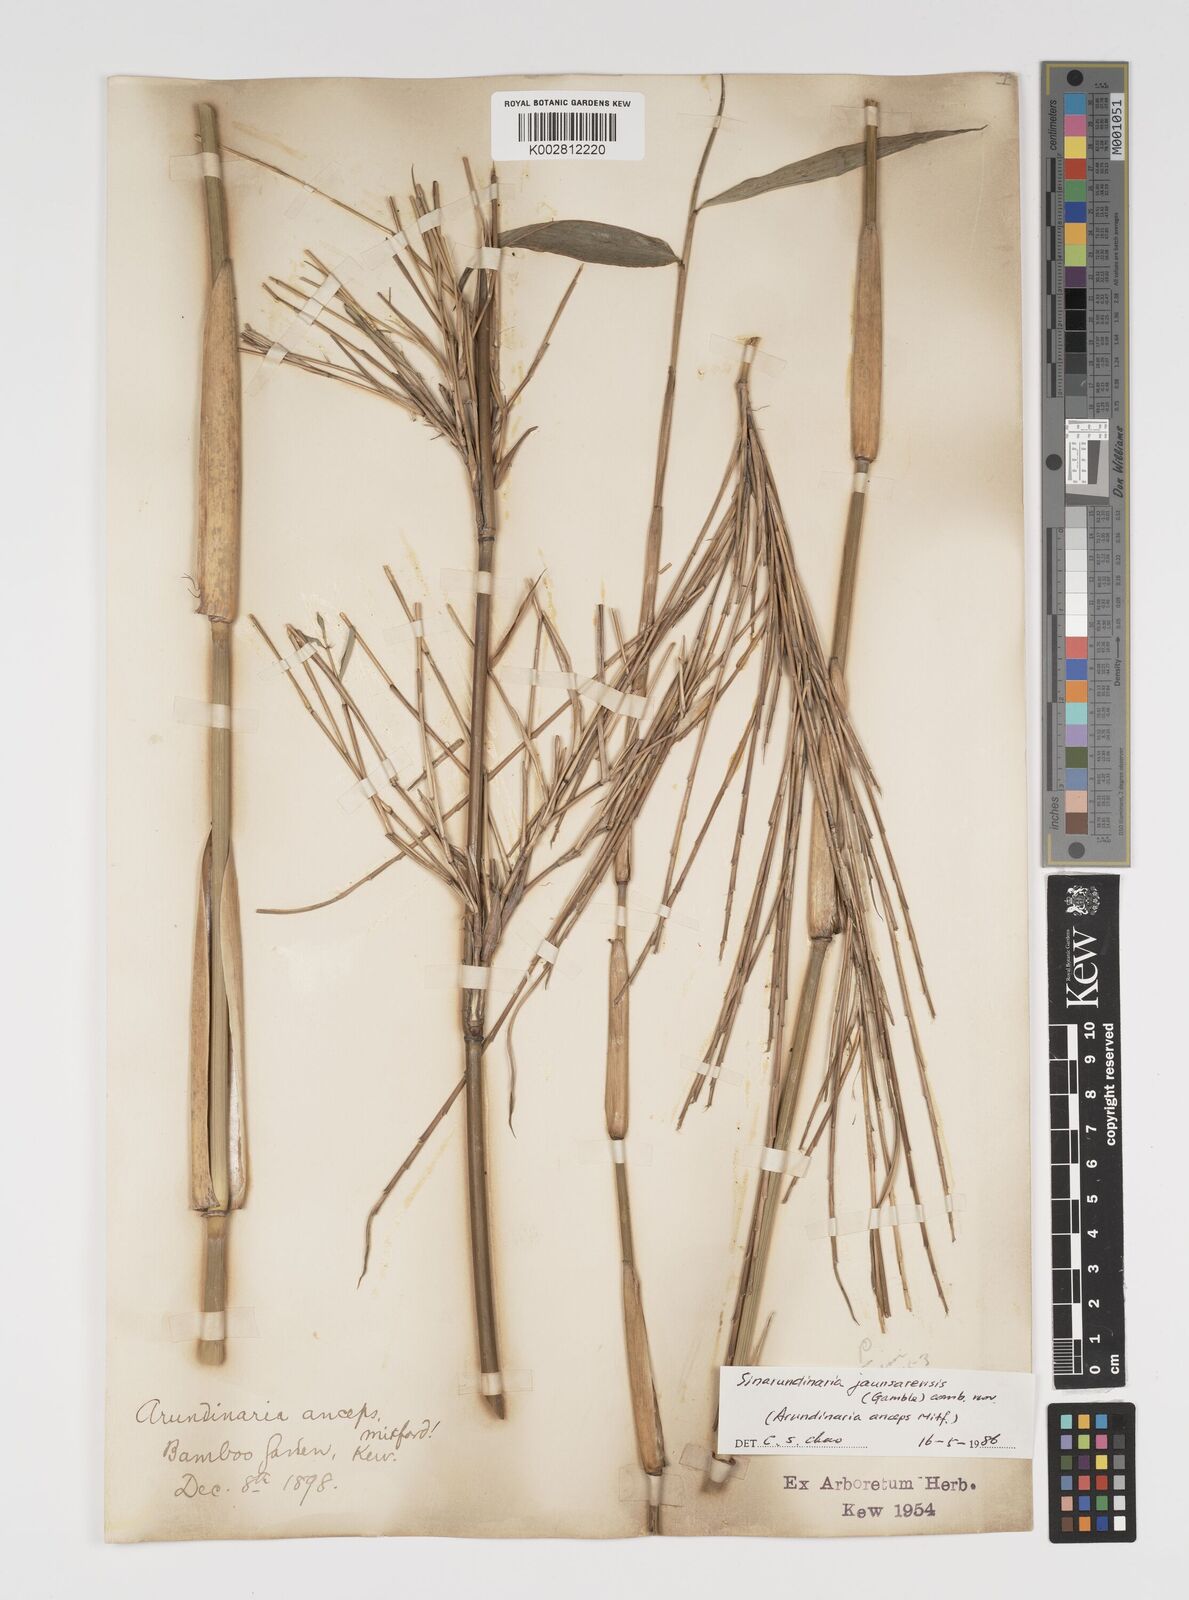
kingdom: Plantae
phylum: Tracheophyta
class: Liliopsida
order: Poales
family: Poaceae
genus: Yushania
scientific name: Yushania anceps
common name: Indian fountain-bamboo
